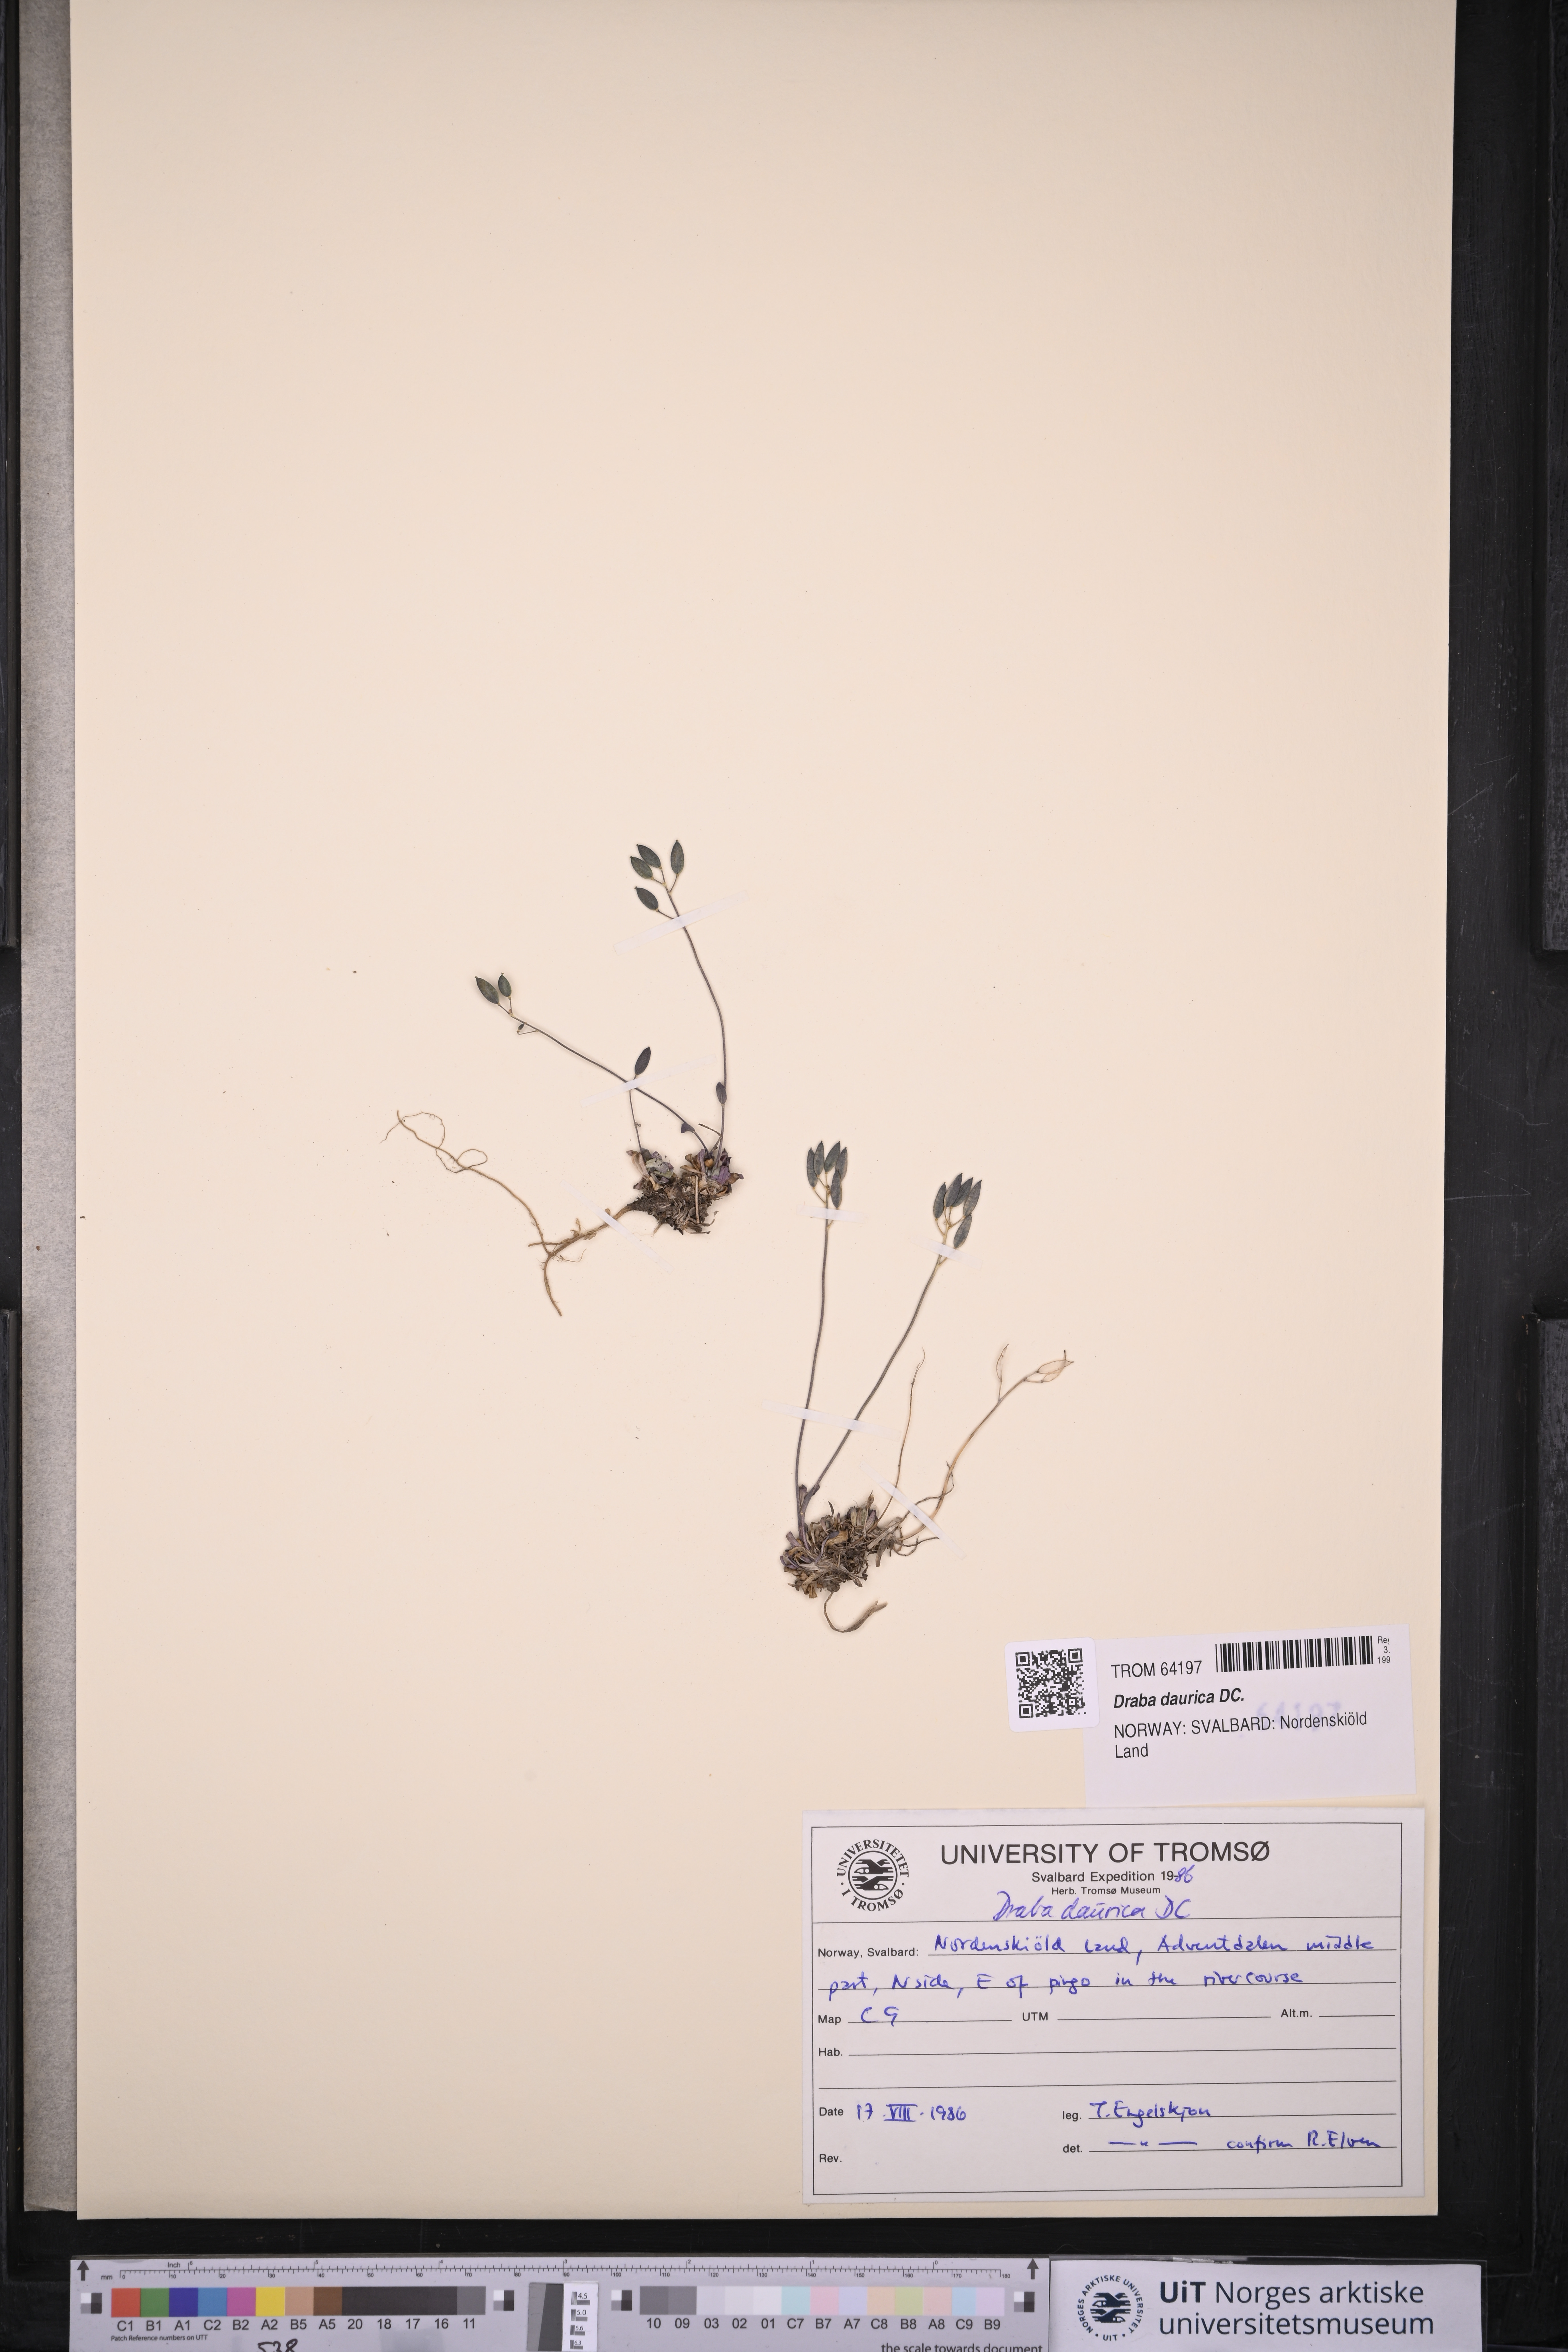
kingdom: Plantae
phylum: Tracheophyta
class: Magnoliopsida
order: Brassicales
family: Brassicaceae
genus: Draba
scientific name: Draba glabella
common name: Glaucous draba
